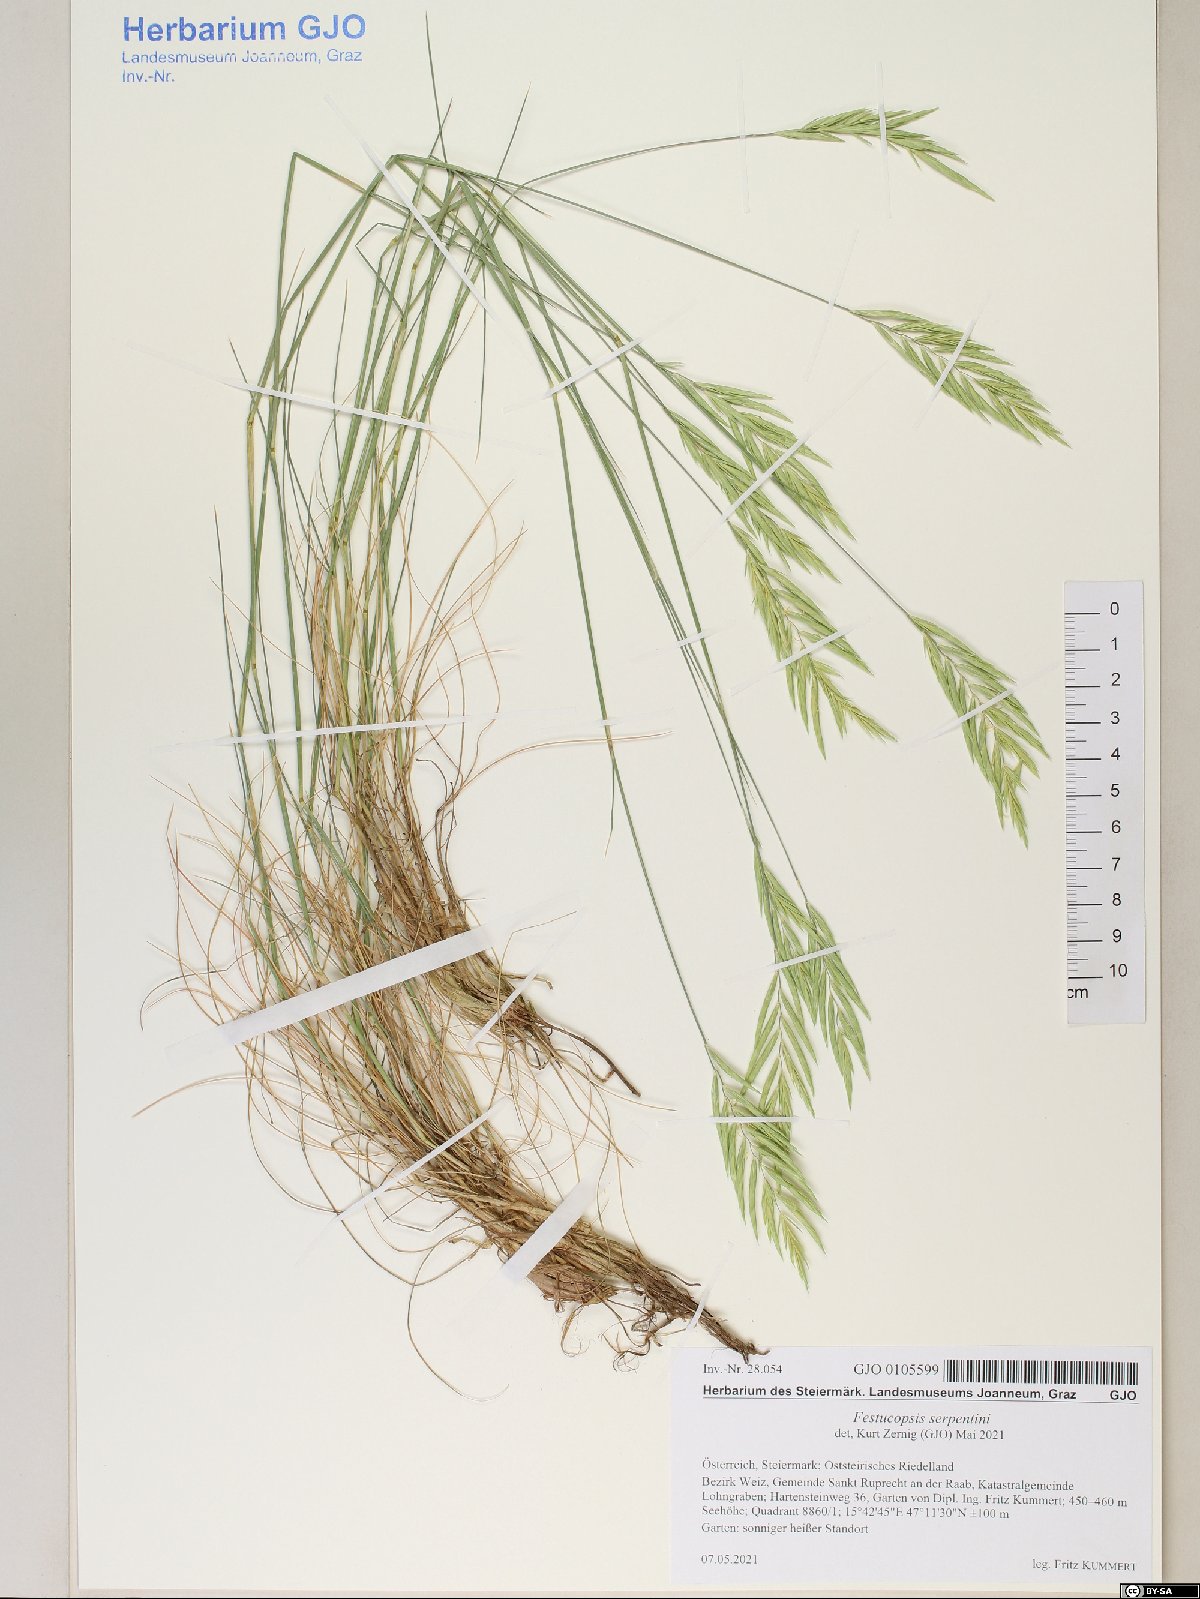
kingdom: Plantae
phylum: Tracheophyta
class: Liliopsida
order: Poales
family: Poaceae
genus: Festucopsis
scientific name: Festucopsis serpentini
